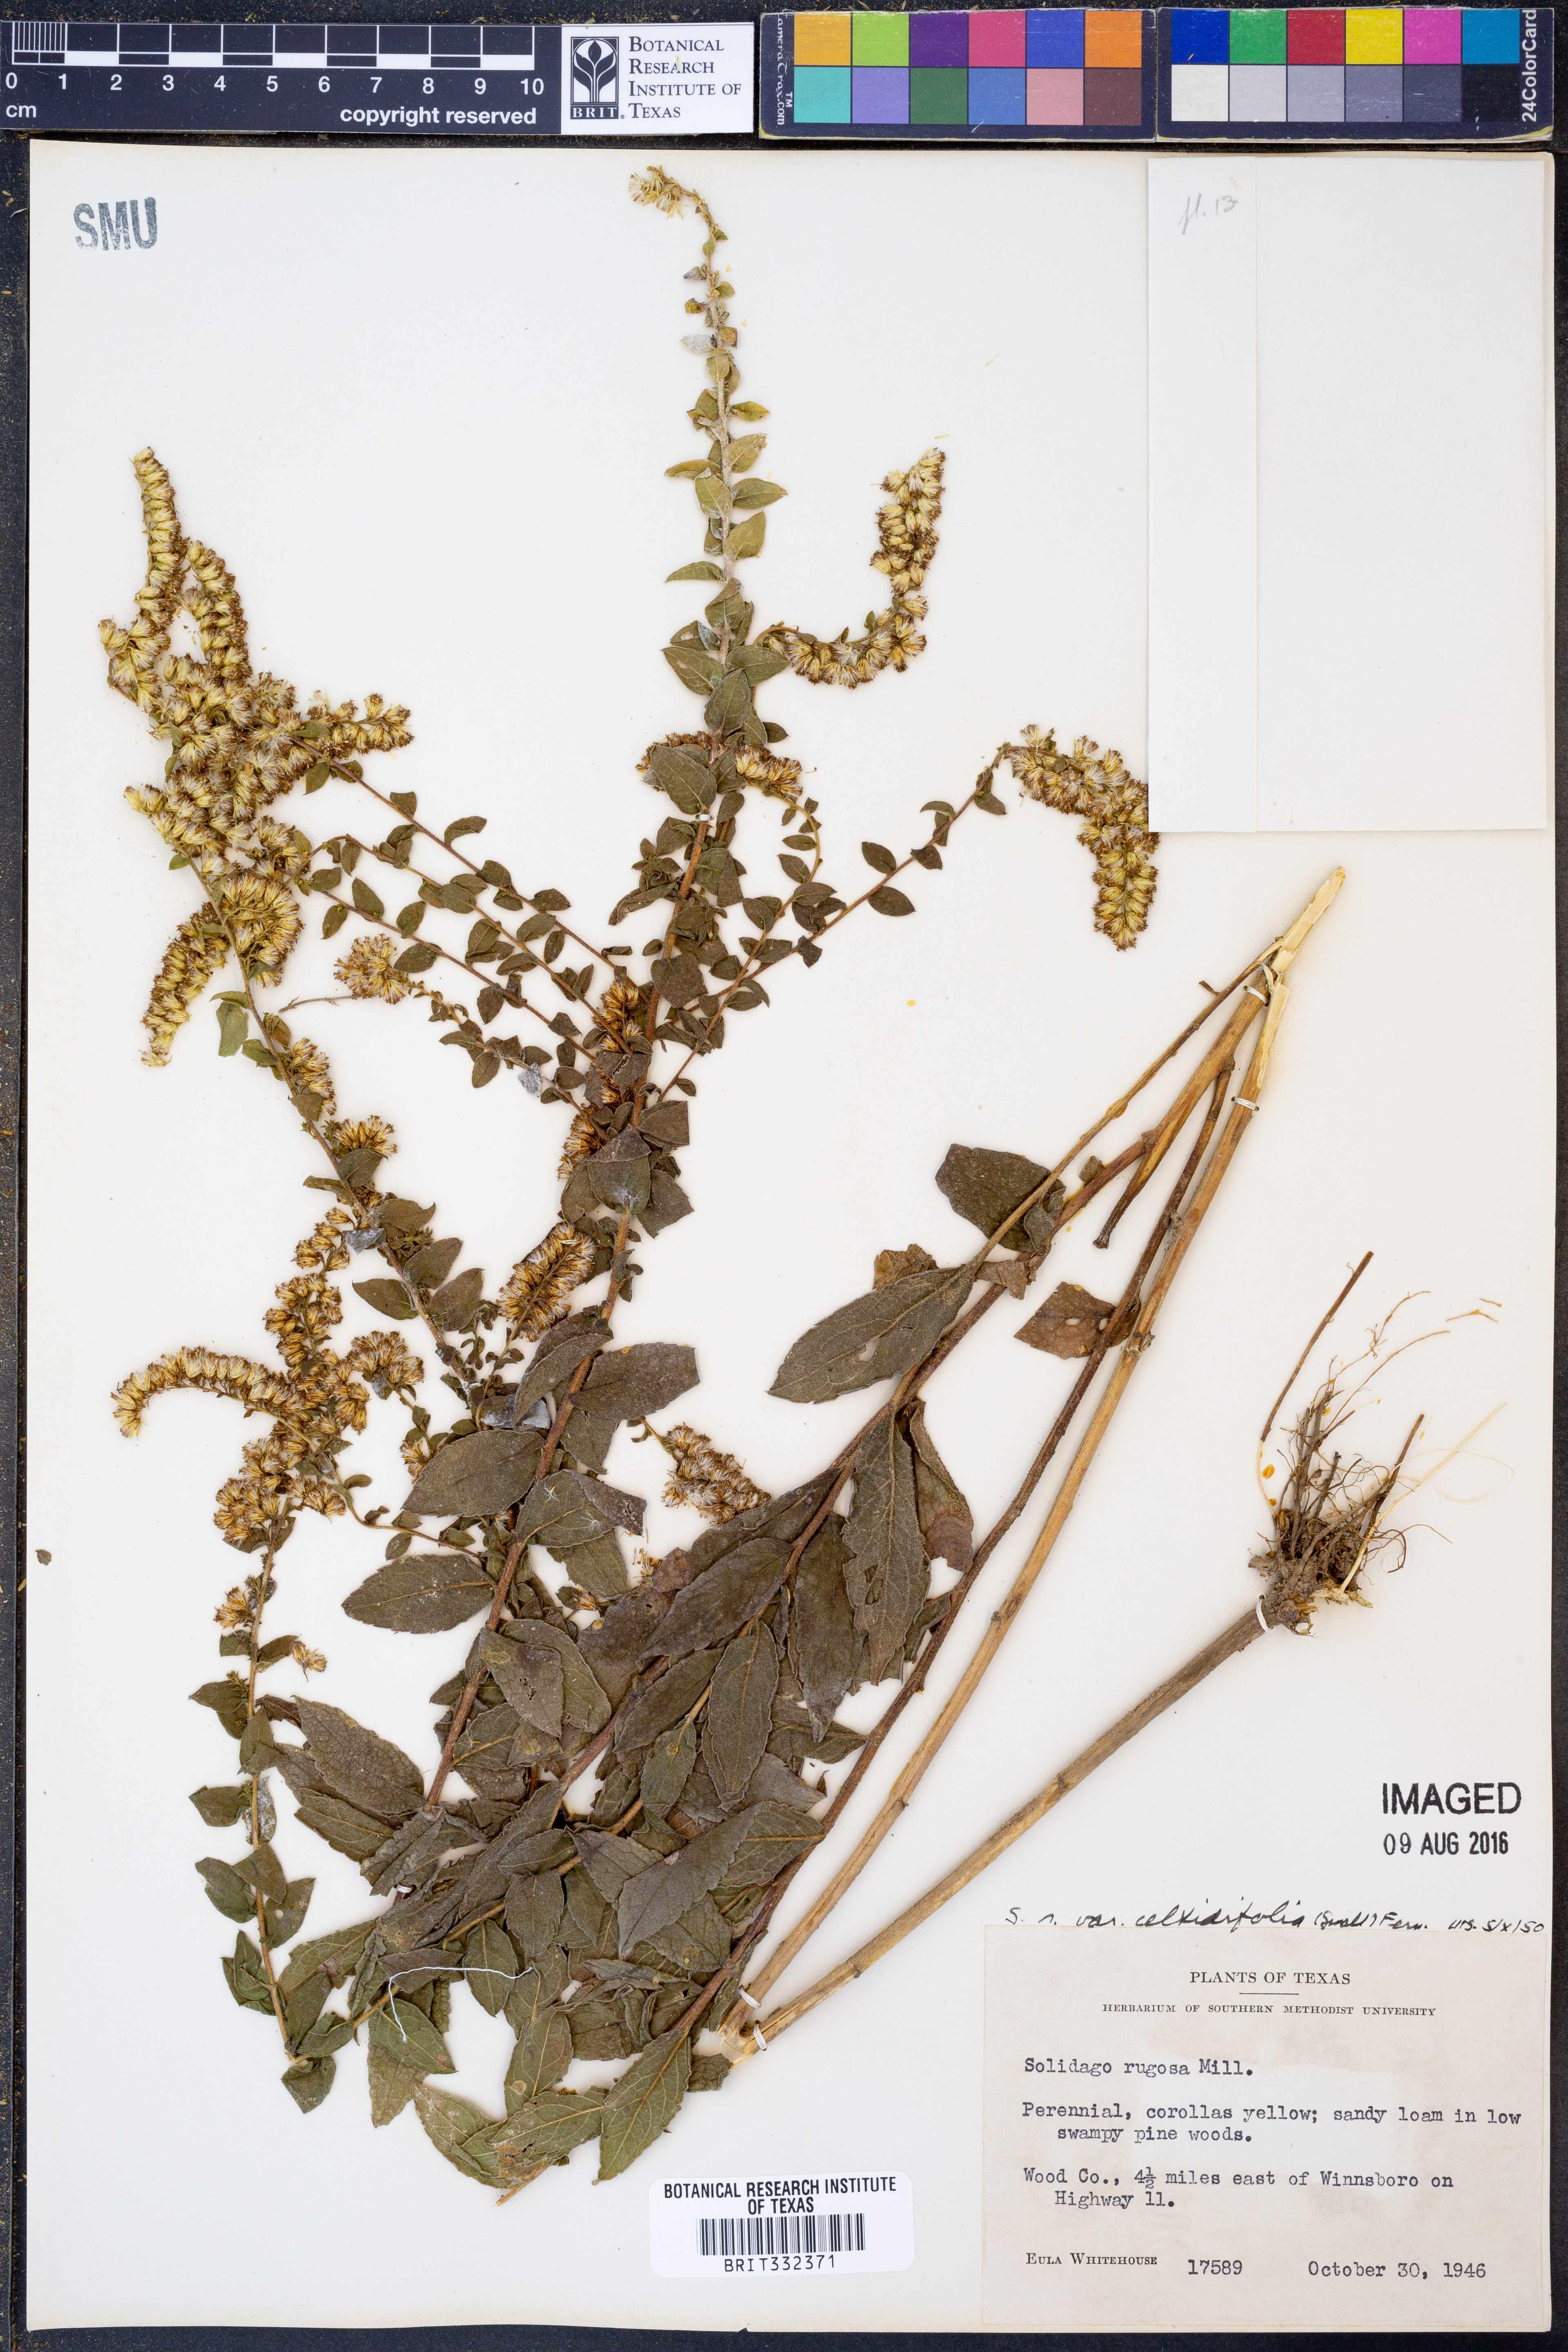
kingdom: Plantae
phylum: Tracheophyta
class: Magnoliopsida
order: Asterales
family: Asteraceae
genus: Solidago
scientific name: Solidago rugosa
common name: Rough-stemmed goldenrod
